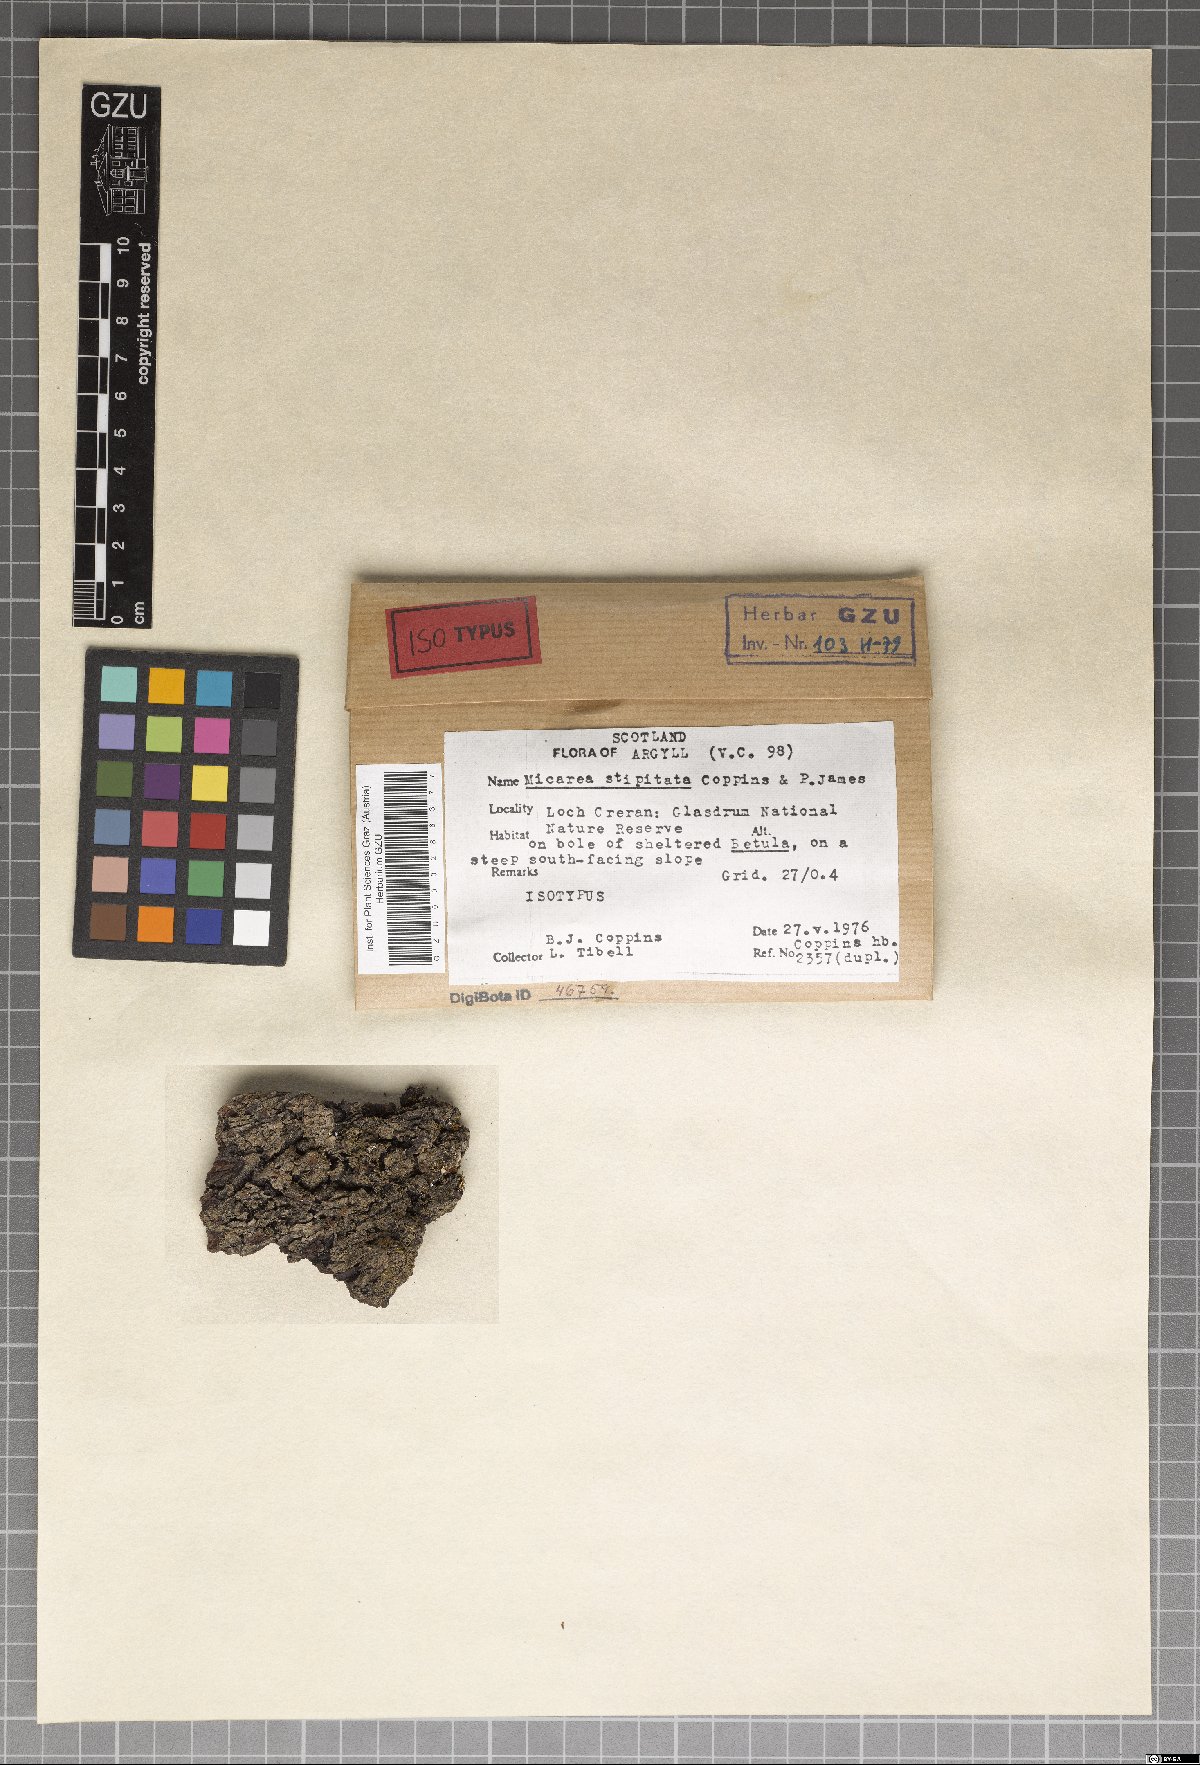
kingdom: Fungi
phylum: Ascomycota
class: Lecanoromycetes
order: Lecanorales
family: Byssolomataceae
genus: Micarea
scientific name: Micarea stipitata
